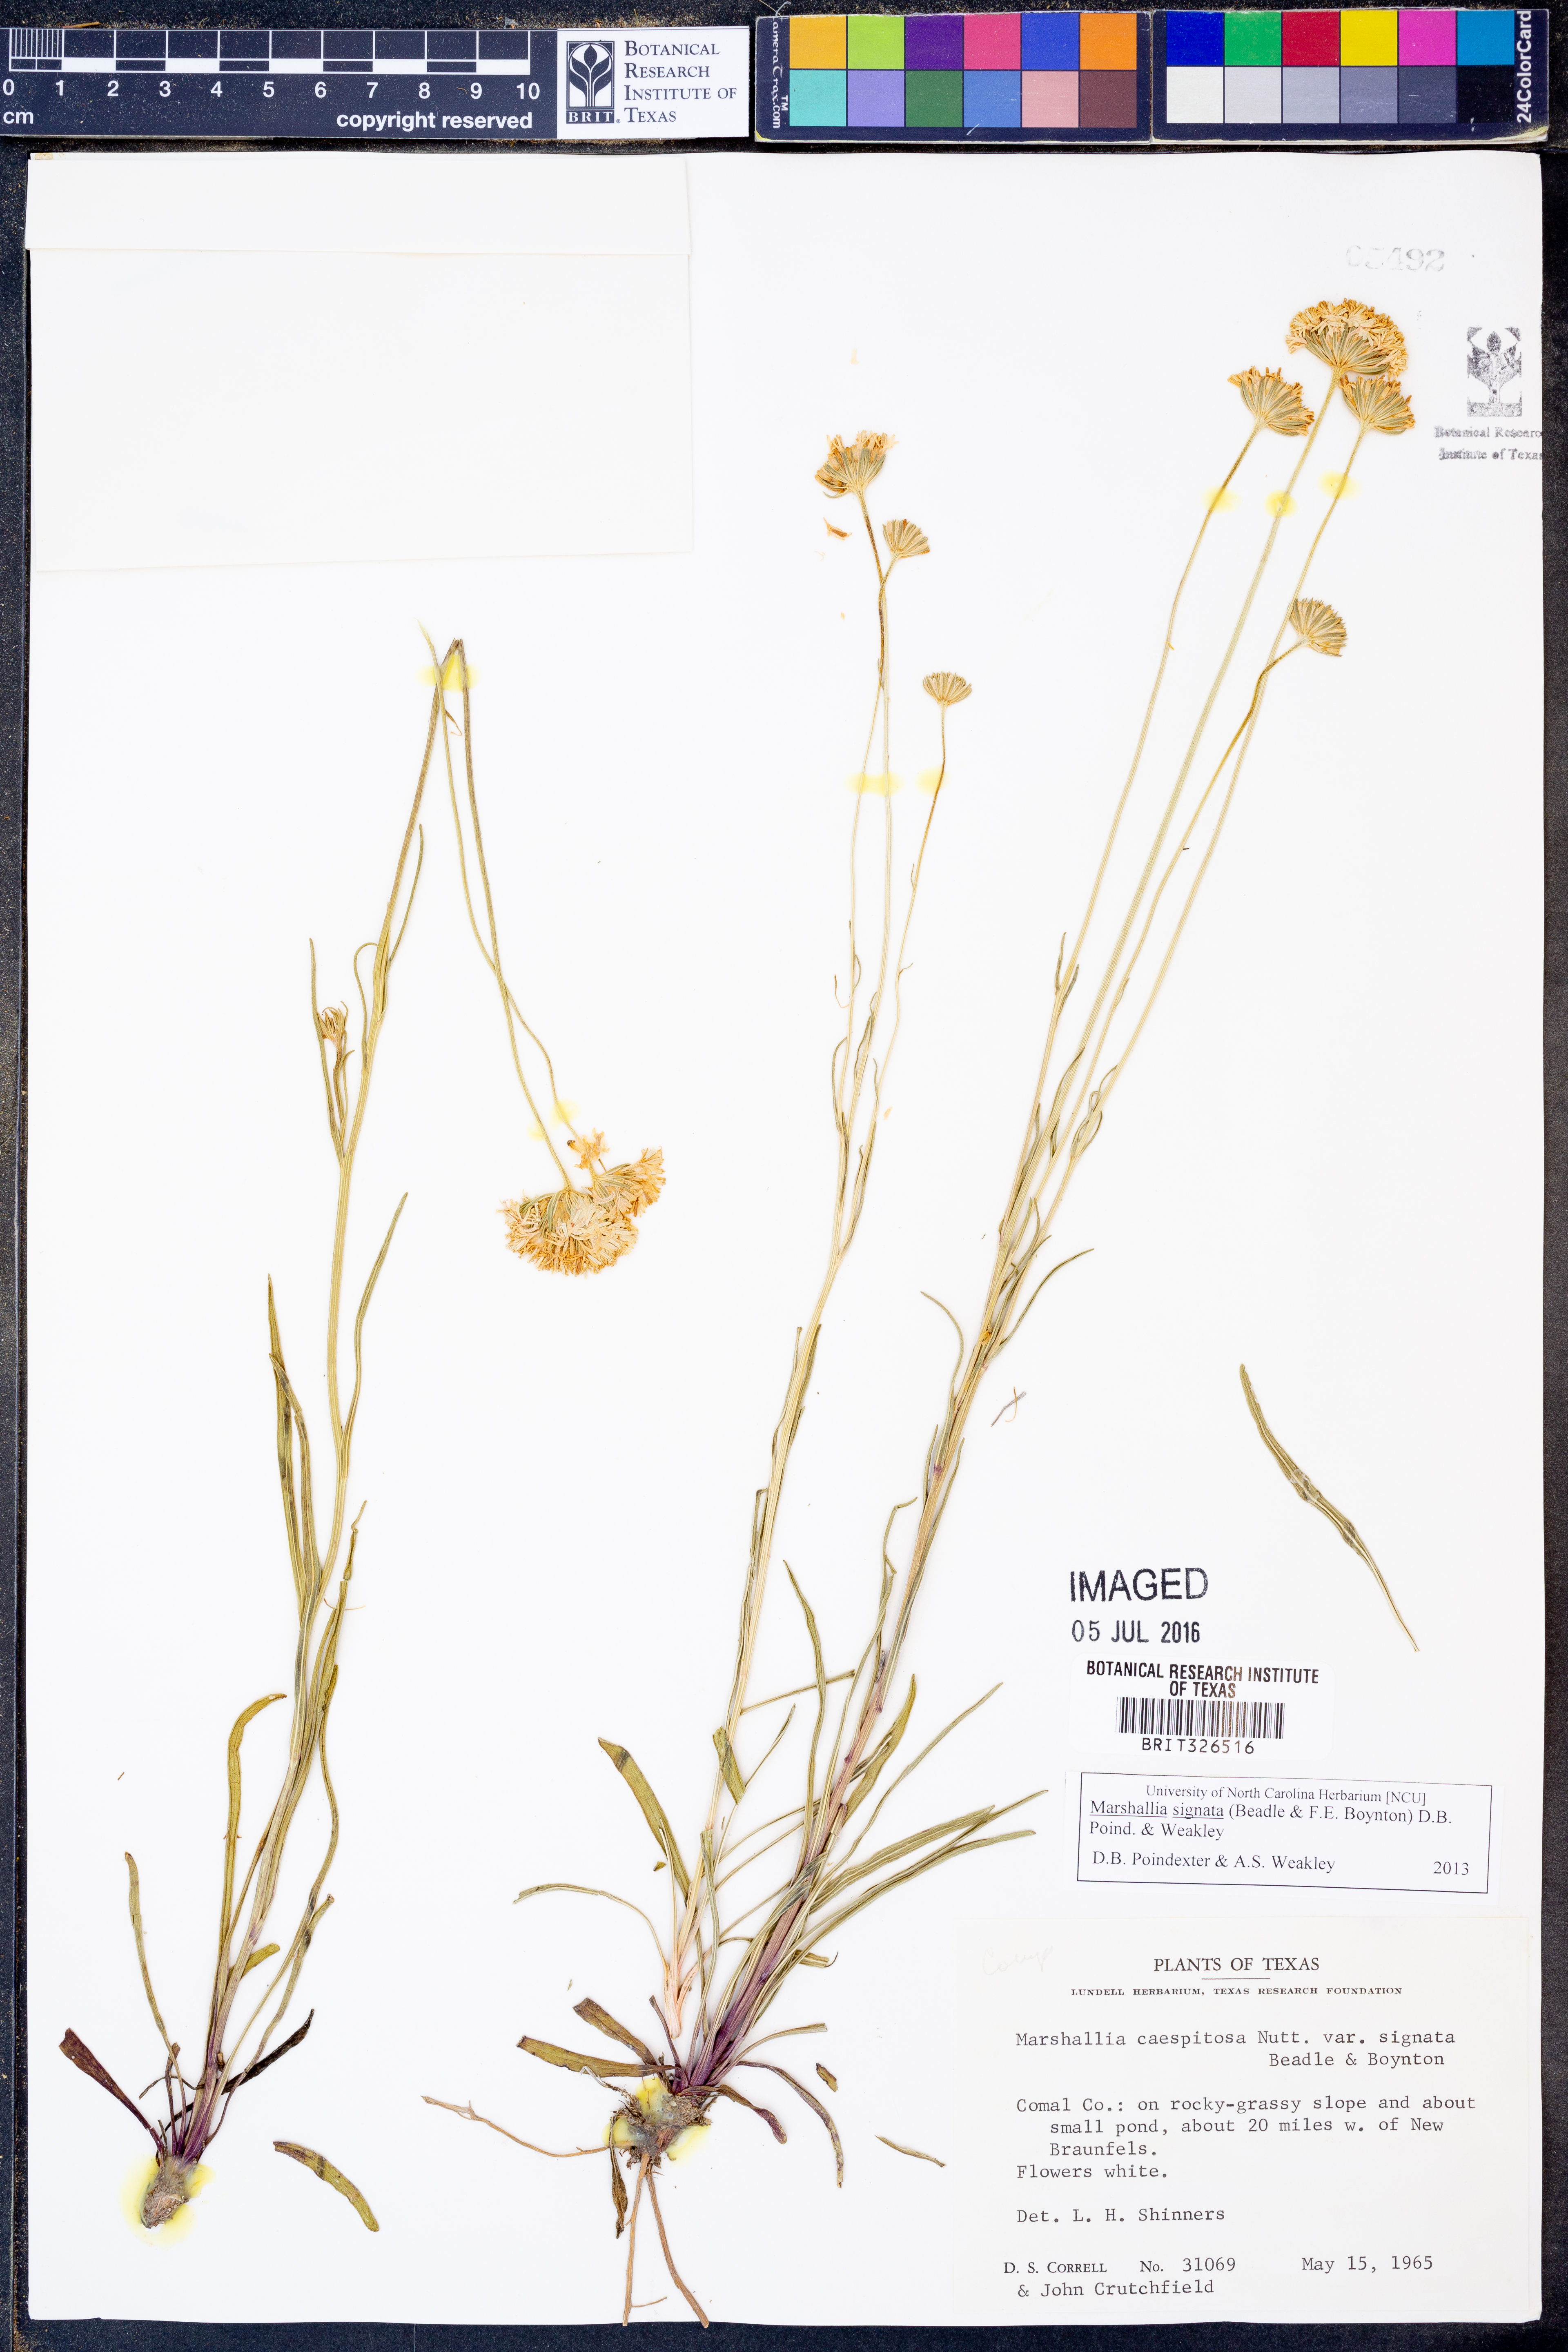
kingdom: Plantae
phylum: Tracheophyta
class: Magnoliopsida
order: Asterales
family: Asteraceae
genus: Marshallia
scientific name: Marshallia
